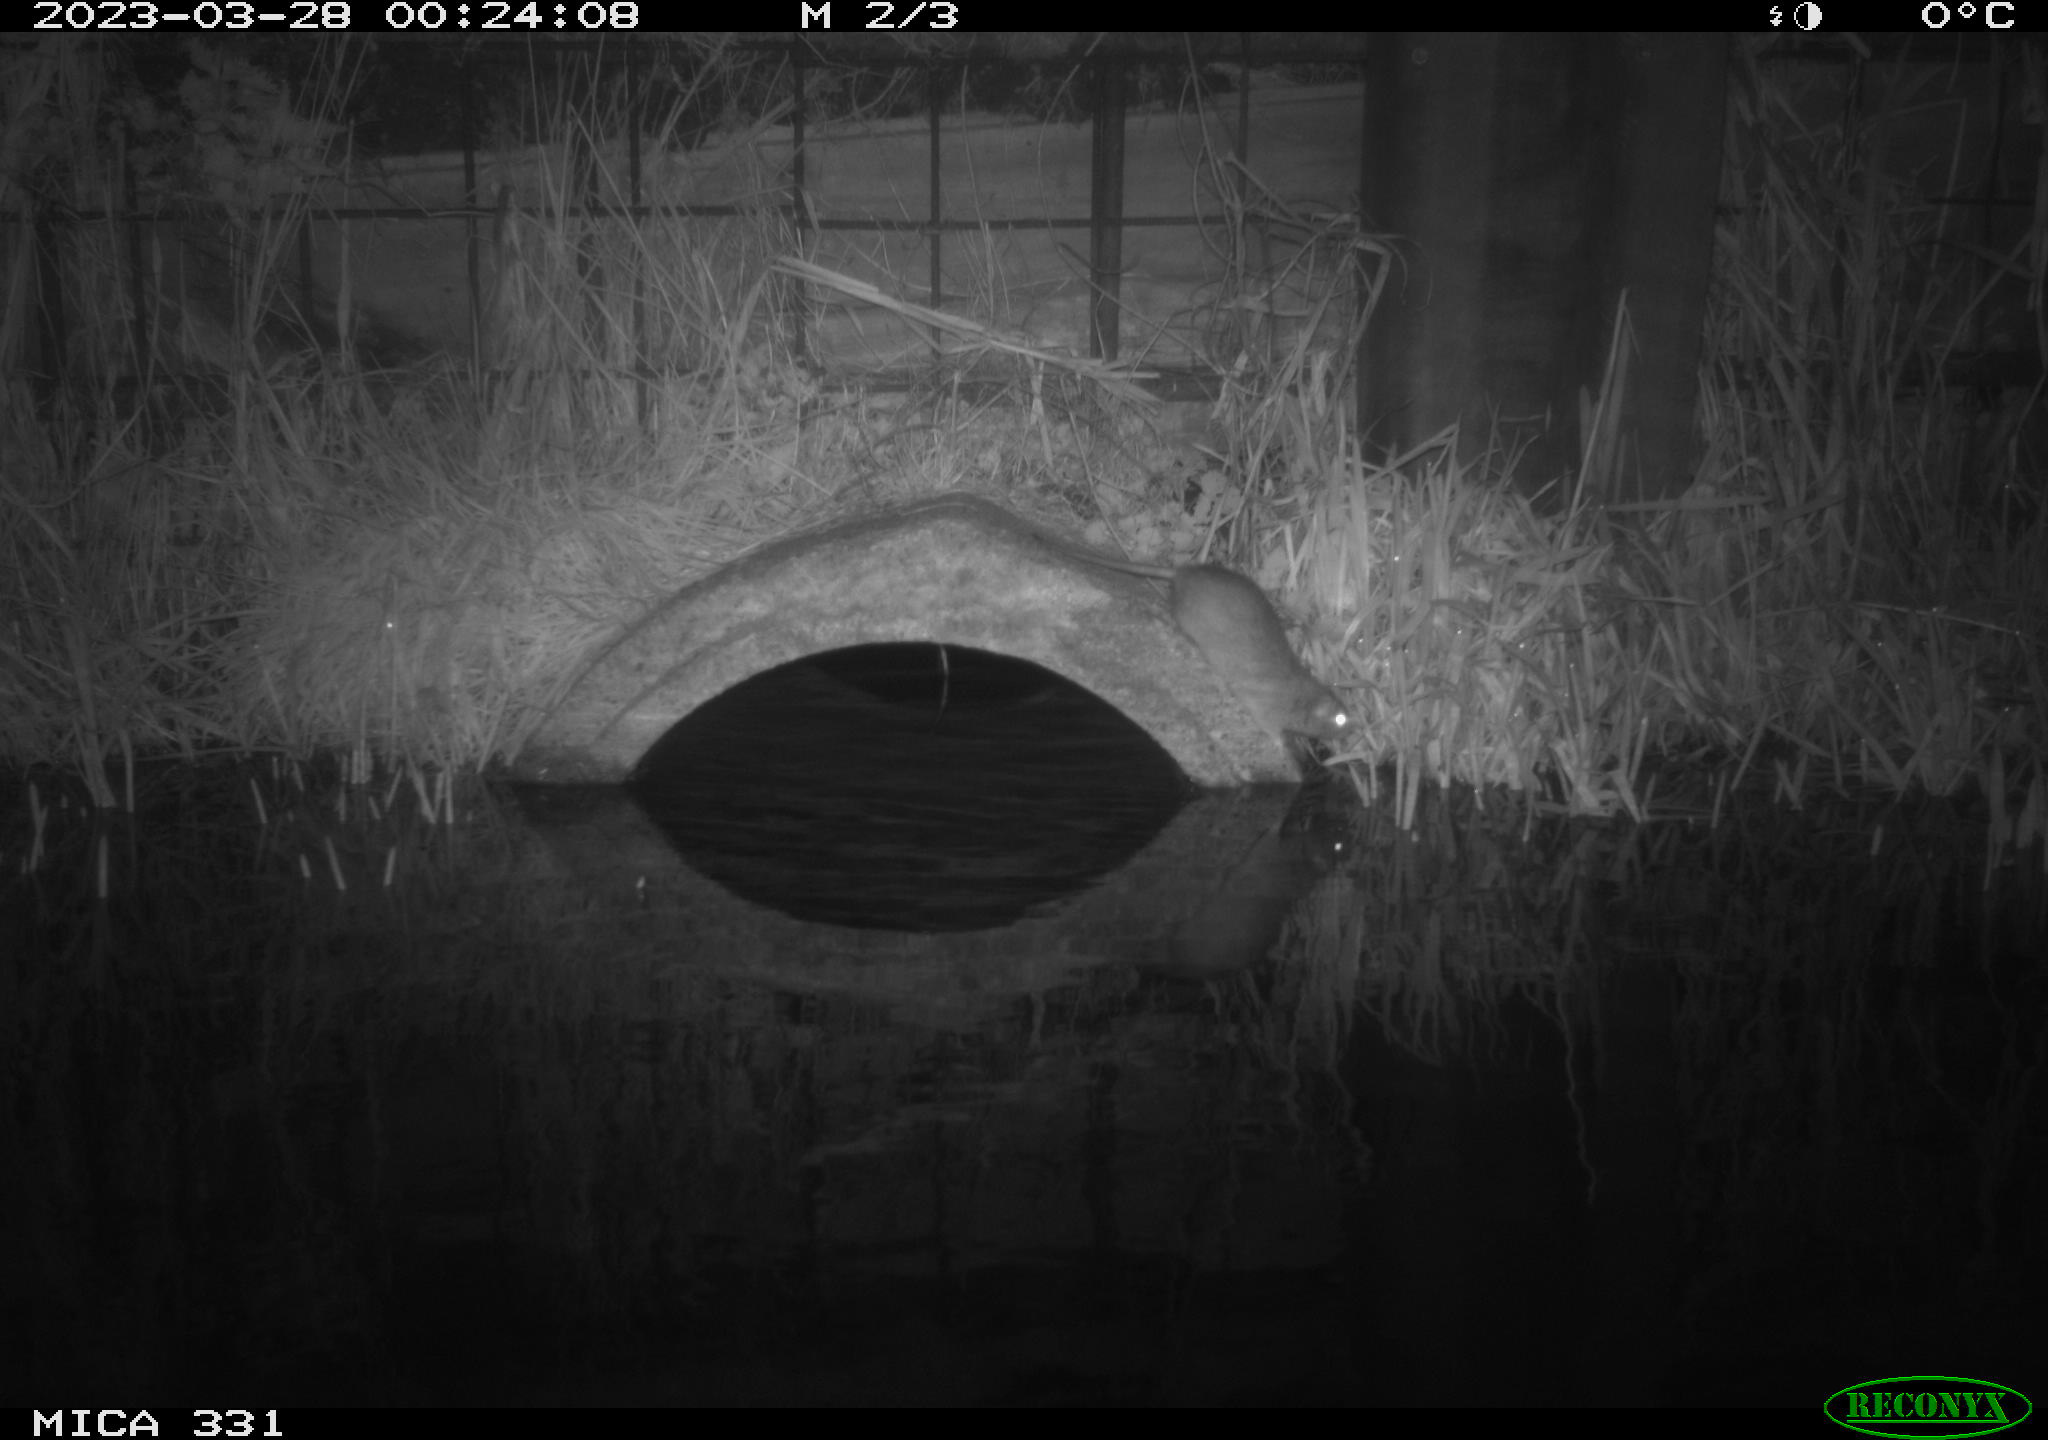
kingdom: Animalia
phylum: Chordata
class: Mammalia
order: Rodentia
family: Muridae
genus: Rattus
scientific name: Rattus norvegicus
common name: Brown rat
